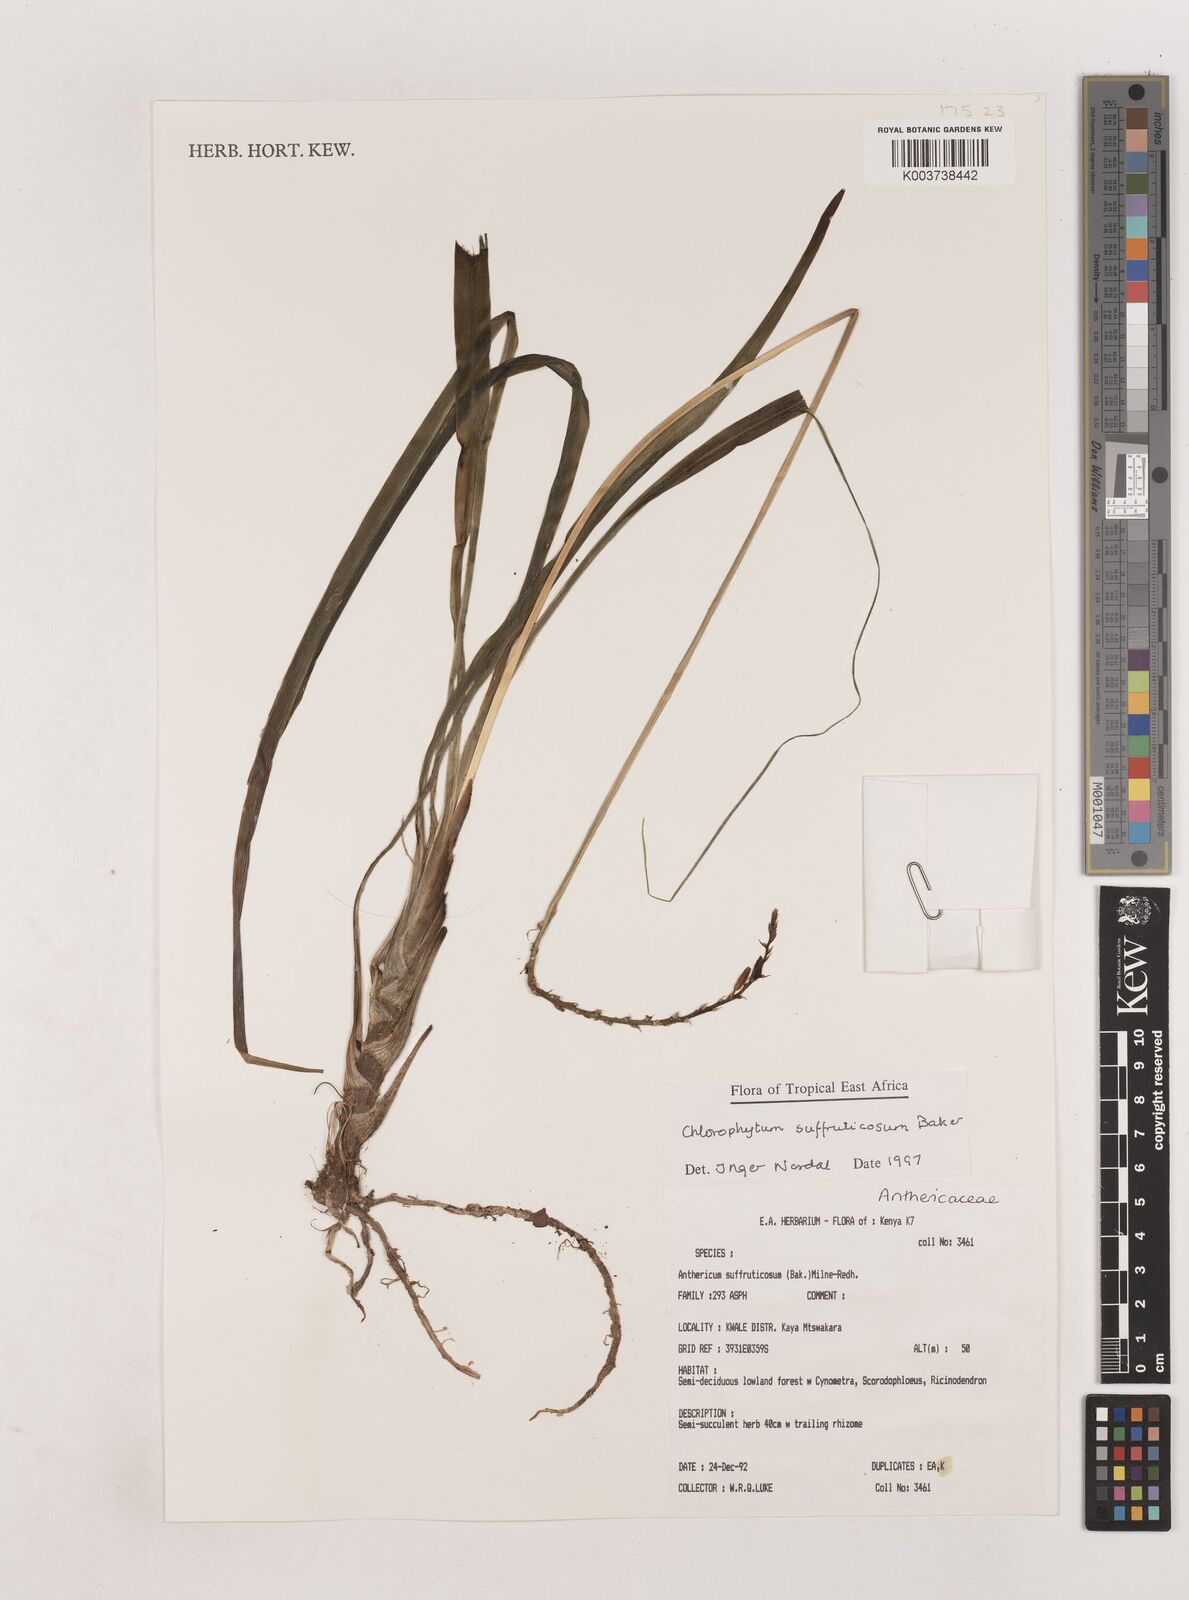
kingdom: Plantae
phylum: Tracheophyta
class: Liliopsida
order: Asparagales
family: Asparagaceae
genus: Chlorophytum
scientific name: Chlorophytum suffruticosum
